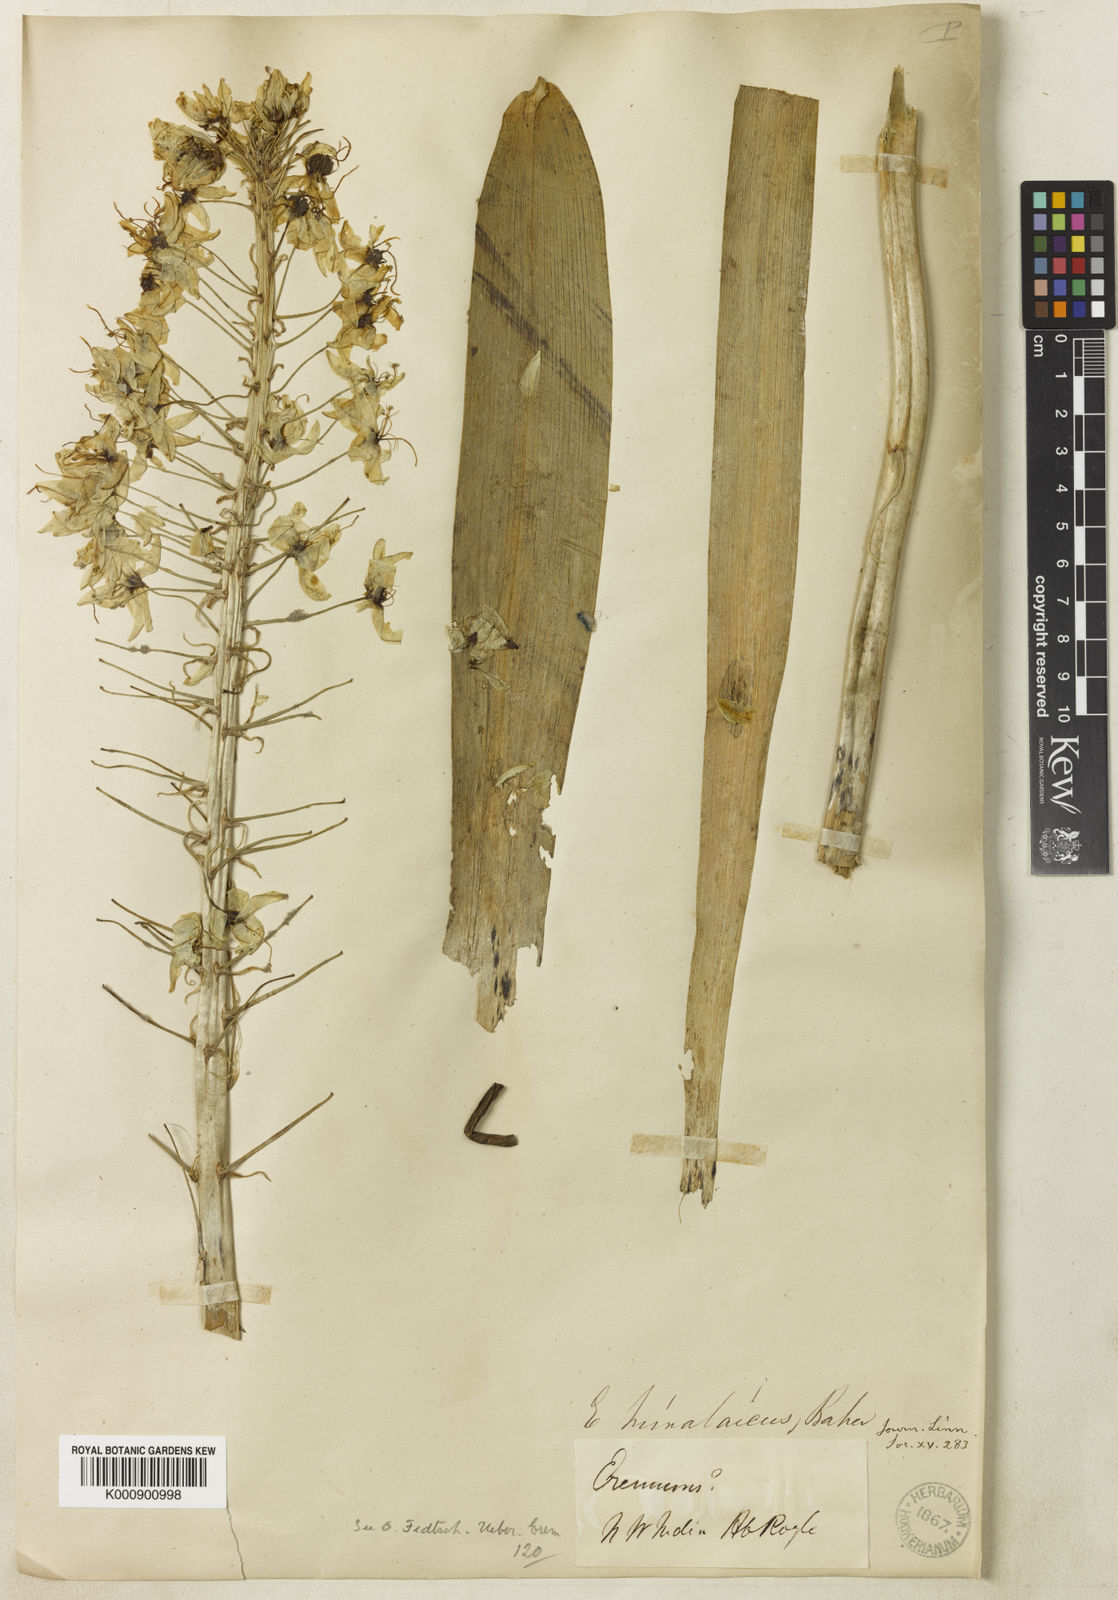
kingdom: Plantae
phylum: Tracheophyta
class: Liliopsida
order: Asparagales
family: Asphodelaceae
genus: Eremurus
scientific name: Eremurus himalaicus
